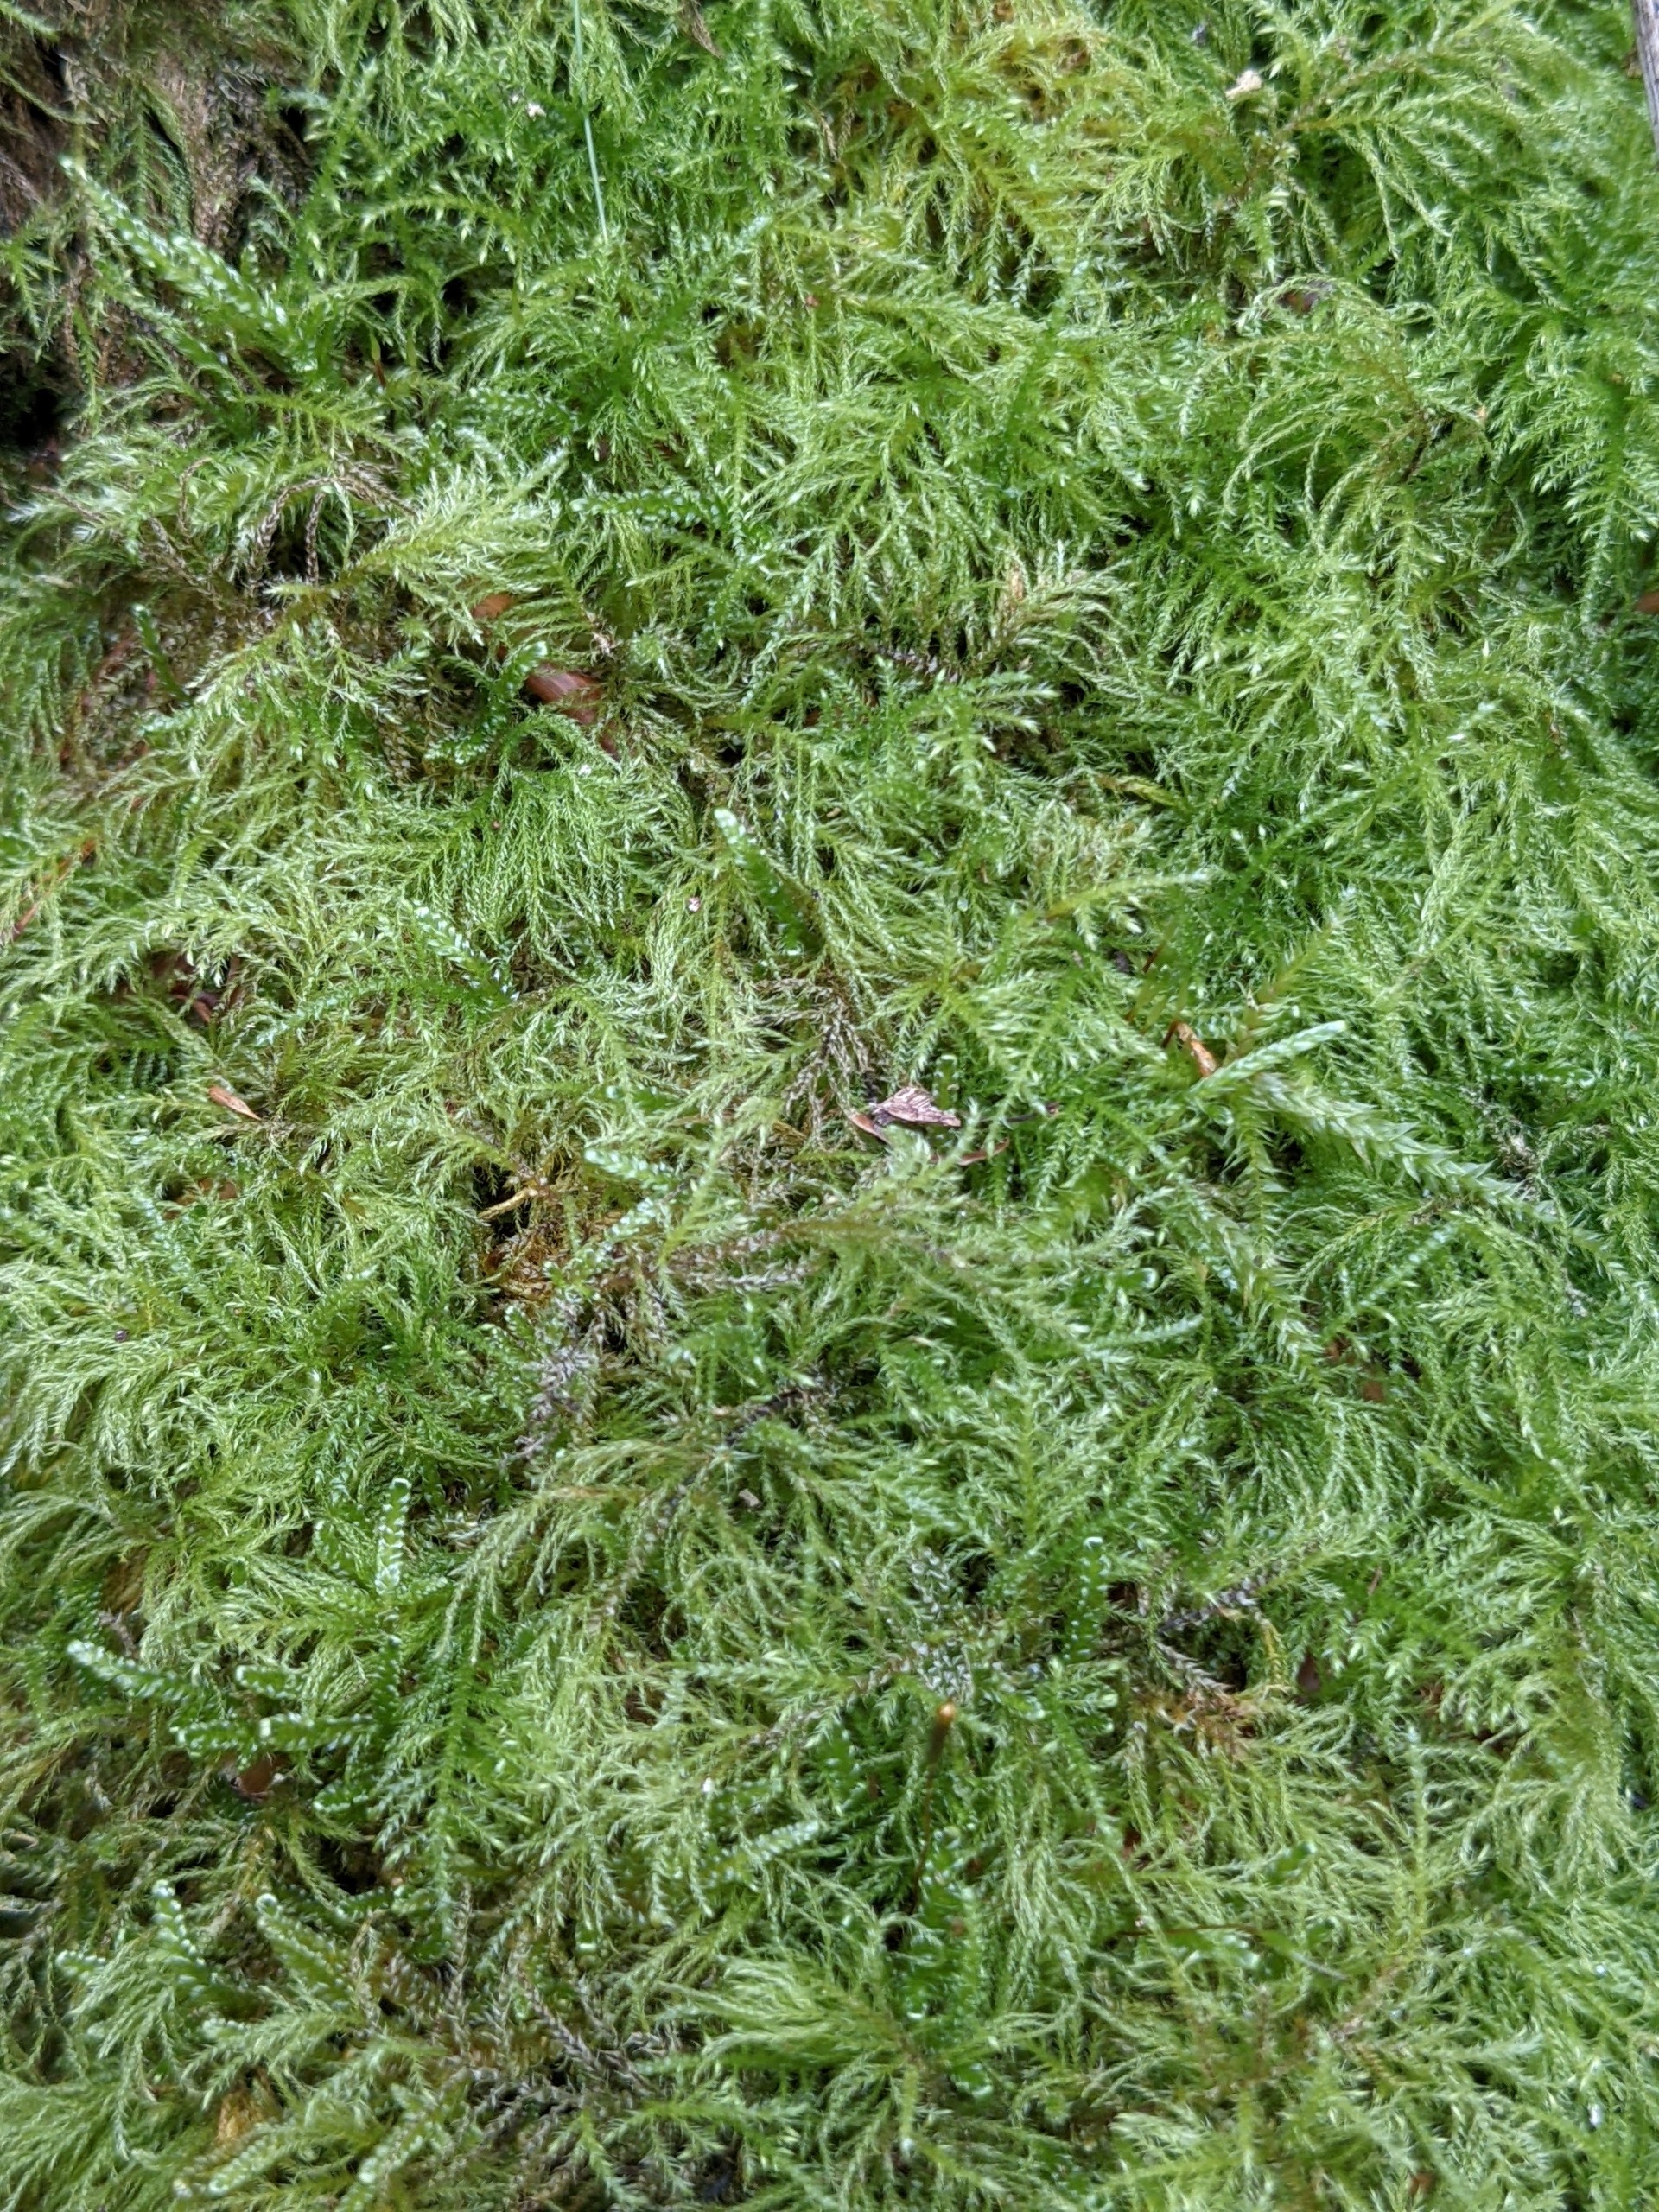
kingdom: Plantae
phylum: Bryophyta
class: Bryopsida
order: Hypnales
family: Brachytheciaceae
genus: Kindbergia
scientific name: Kindbergia praelonga
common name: Forskelligbladet vortetand
